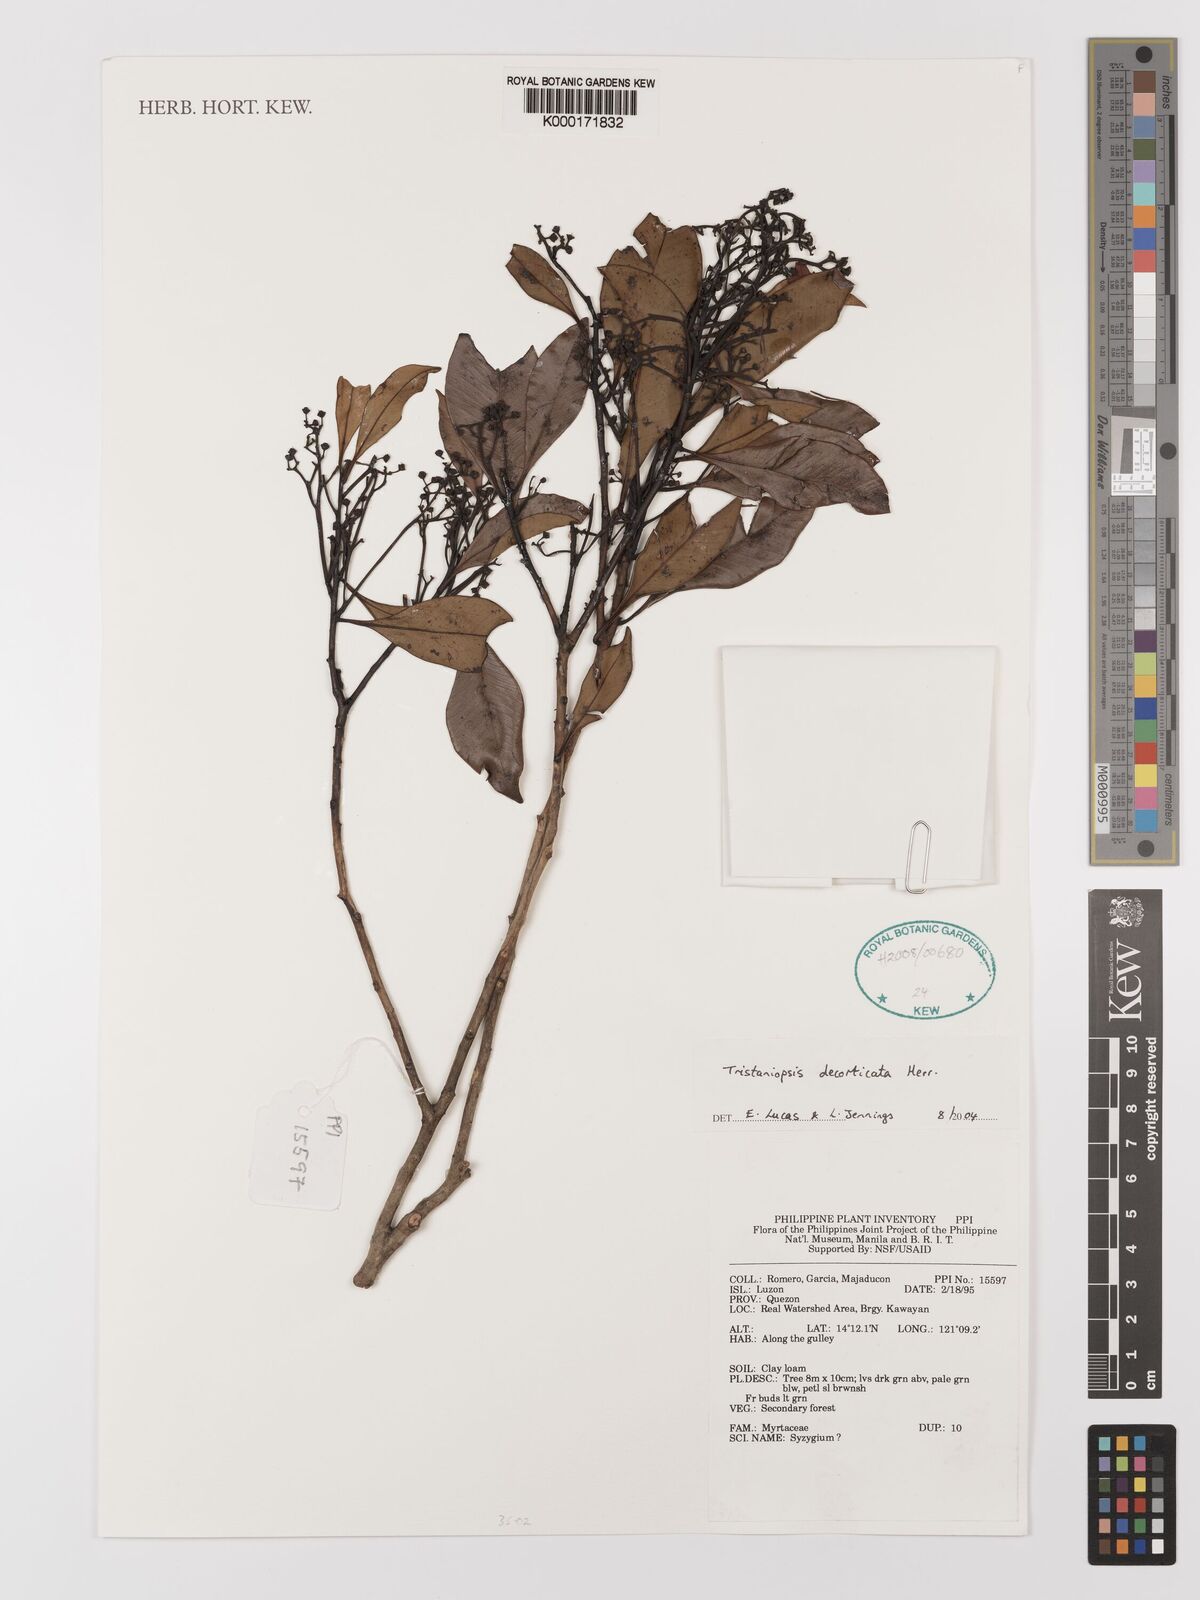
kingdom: Plantae
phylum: Tracheophyta
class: Magnoliopsida
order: Myrtales
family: Myrtaceae
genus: Tristaniopsis
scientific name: Tristaniopsis
